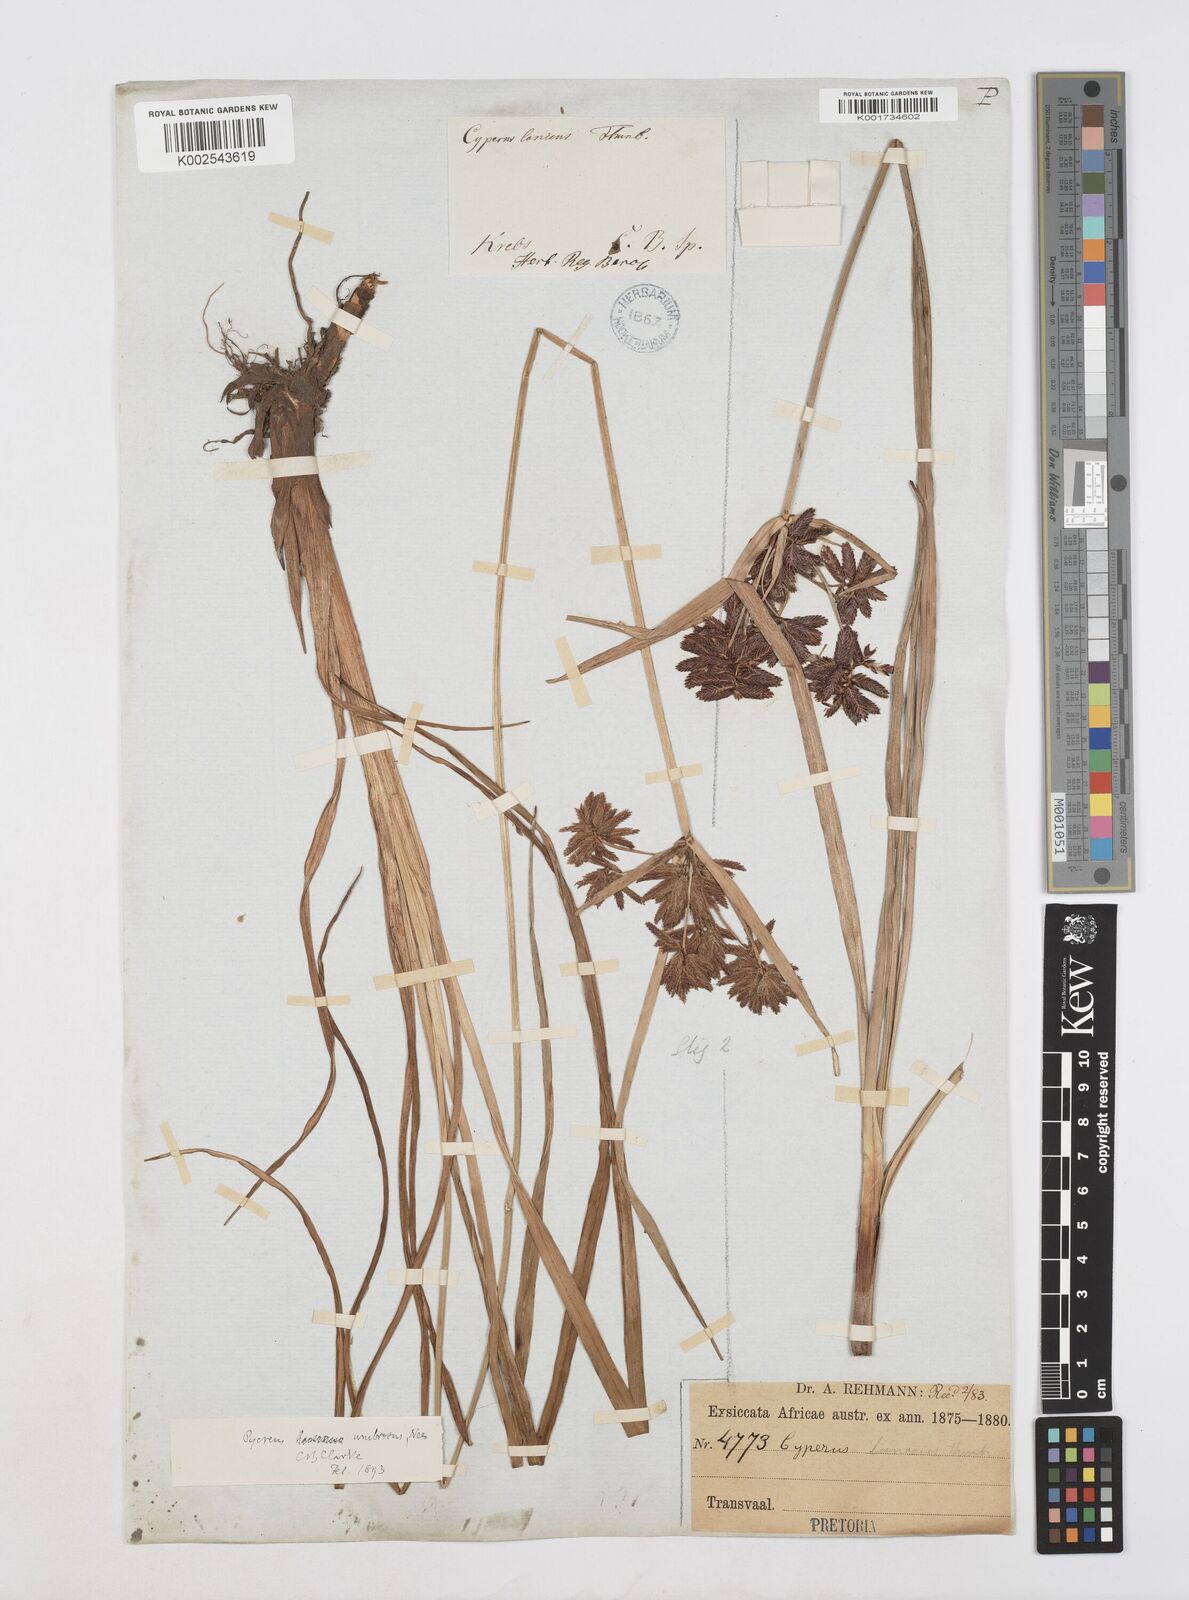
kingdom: Plantae
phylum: Tracheophyta
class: Liliopsida
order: Poales
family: Cyperaceae
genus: Cyperus
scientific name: Cyperus nitidus
